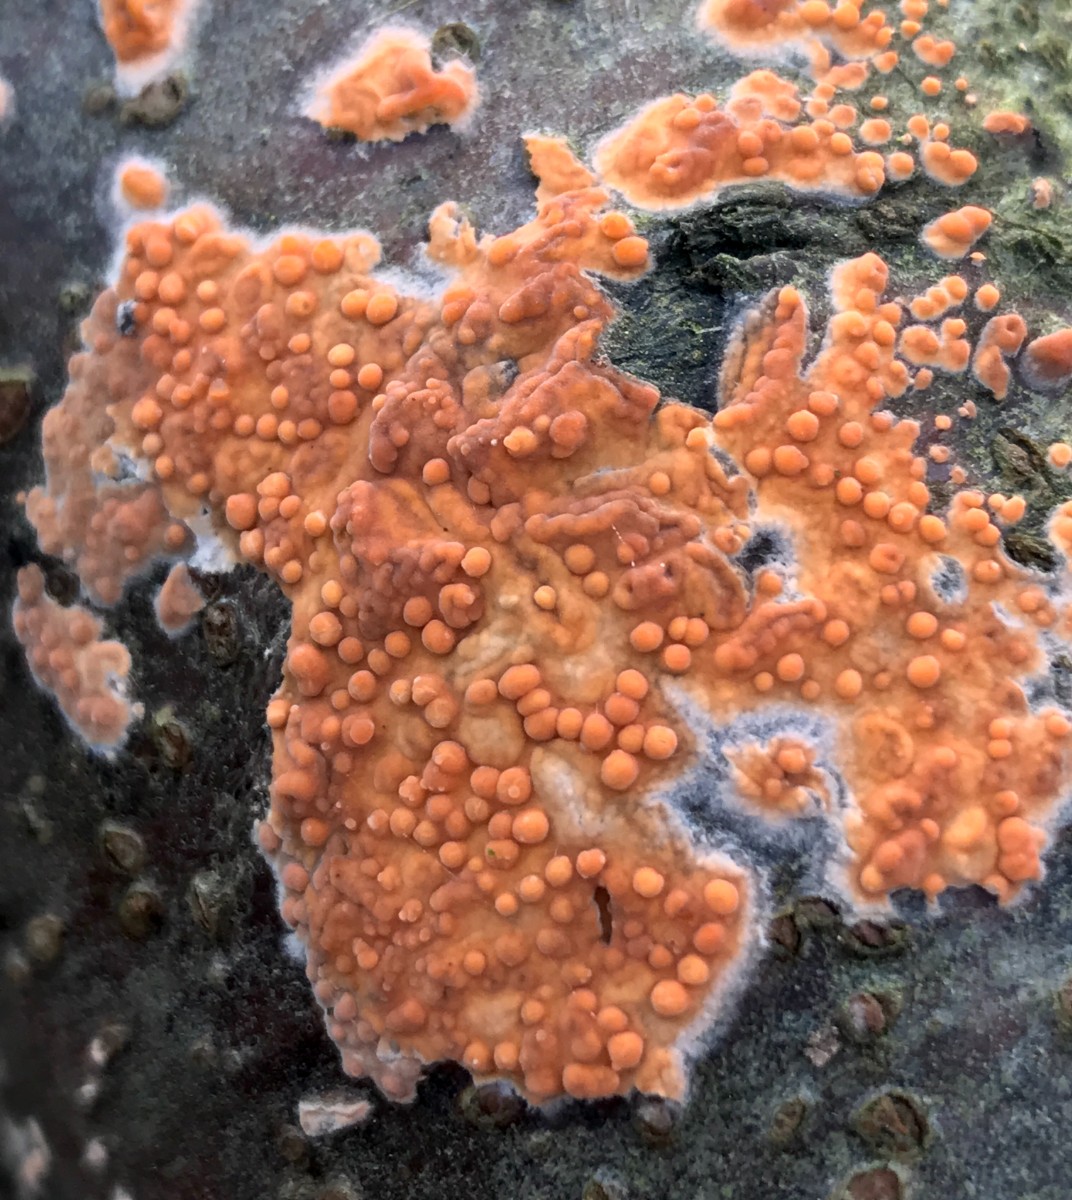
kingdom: Fungi
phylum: Basidiomycota
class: Agaricomycetes
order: Russulales
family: Peniophoraceae
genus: Peniophora
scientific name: Peniophora incarnata
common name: laksefarvet voksskind
